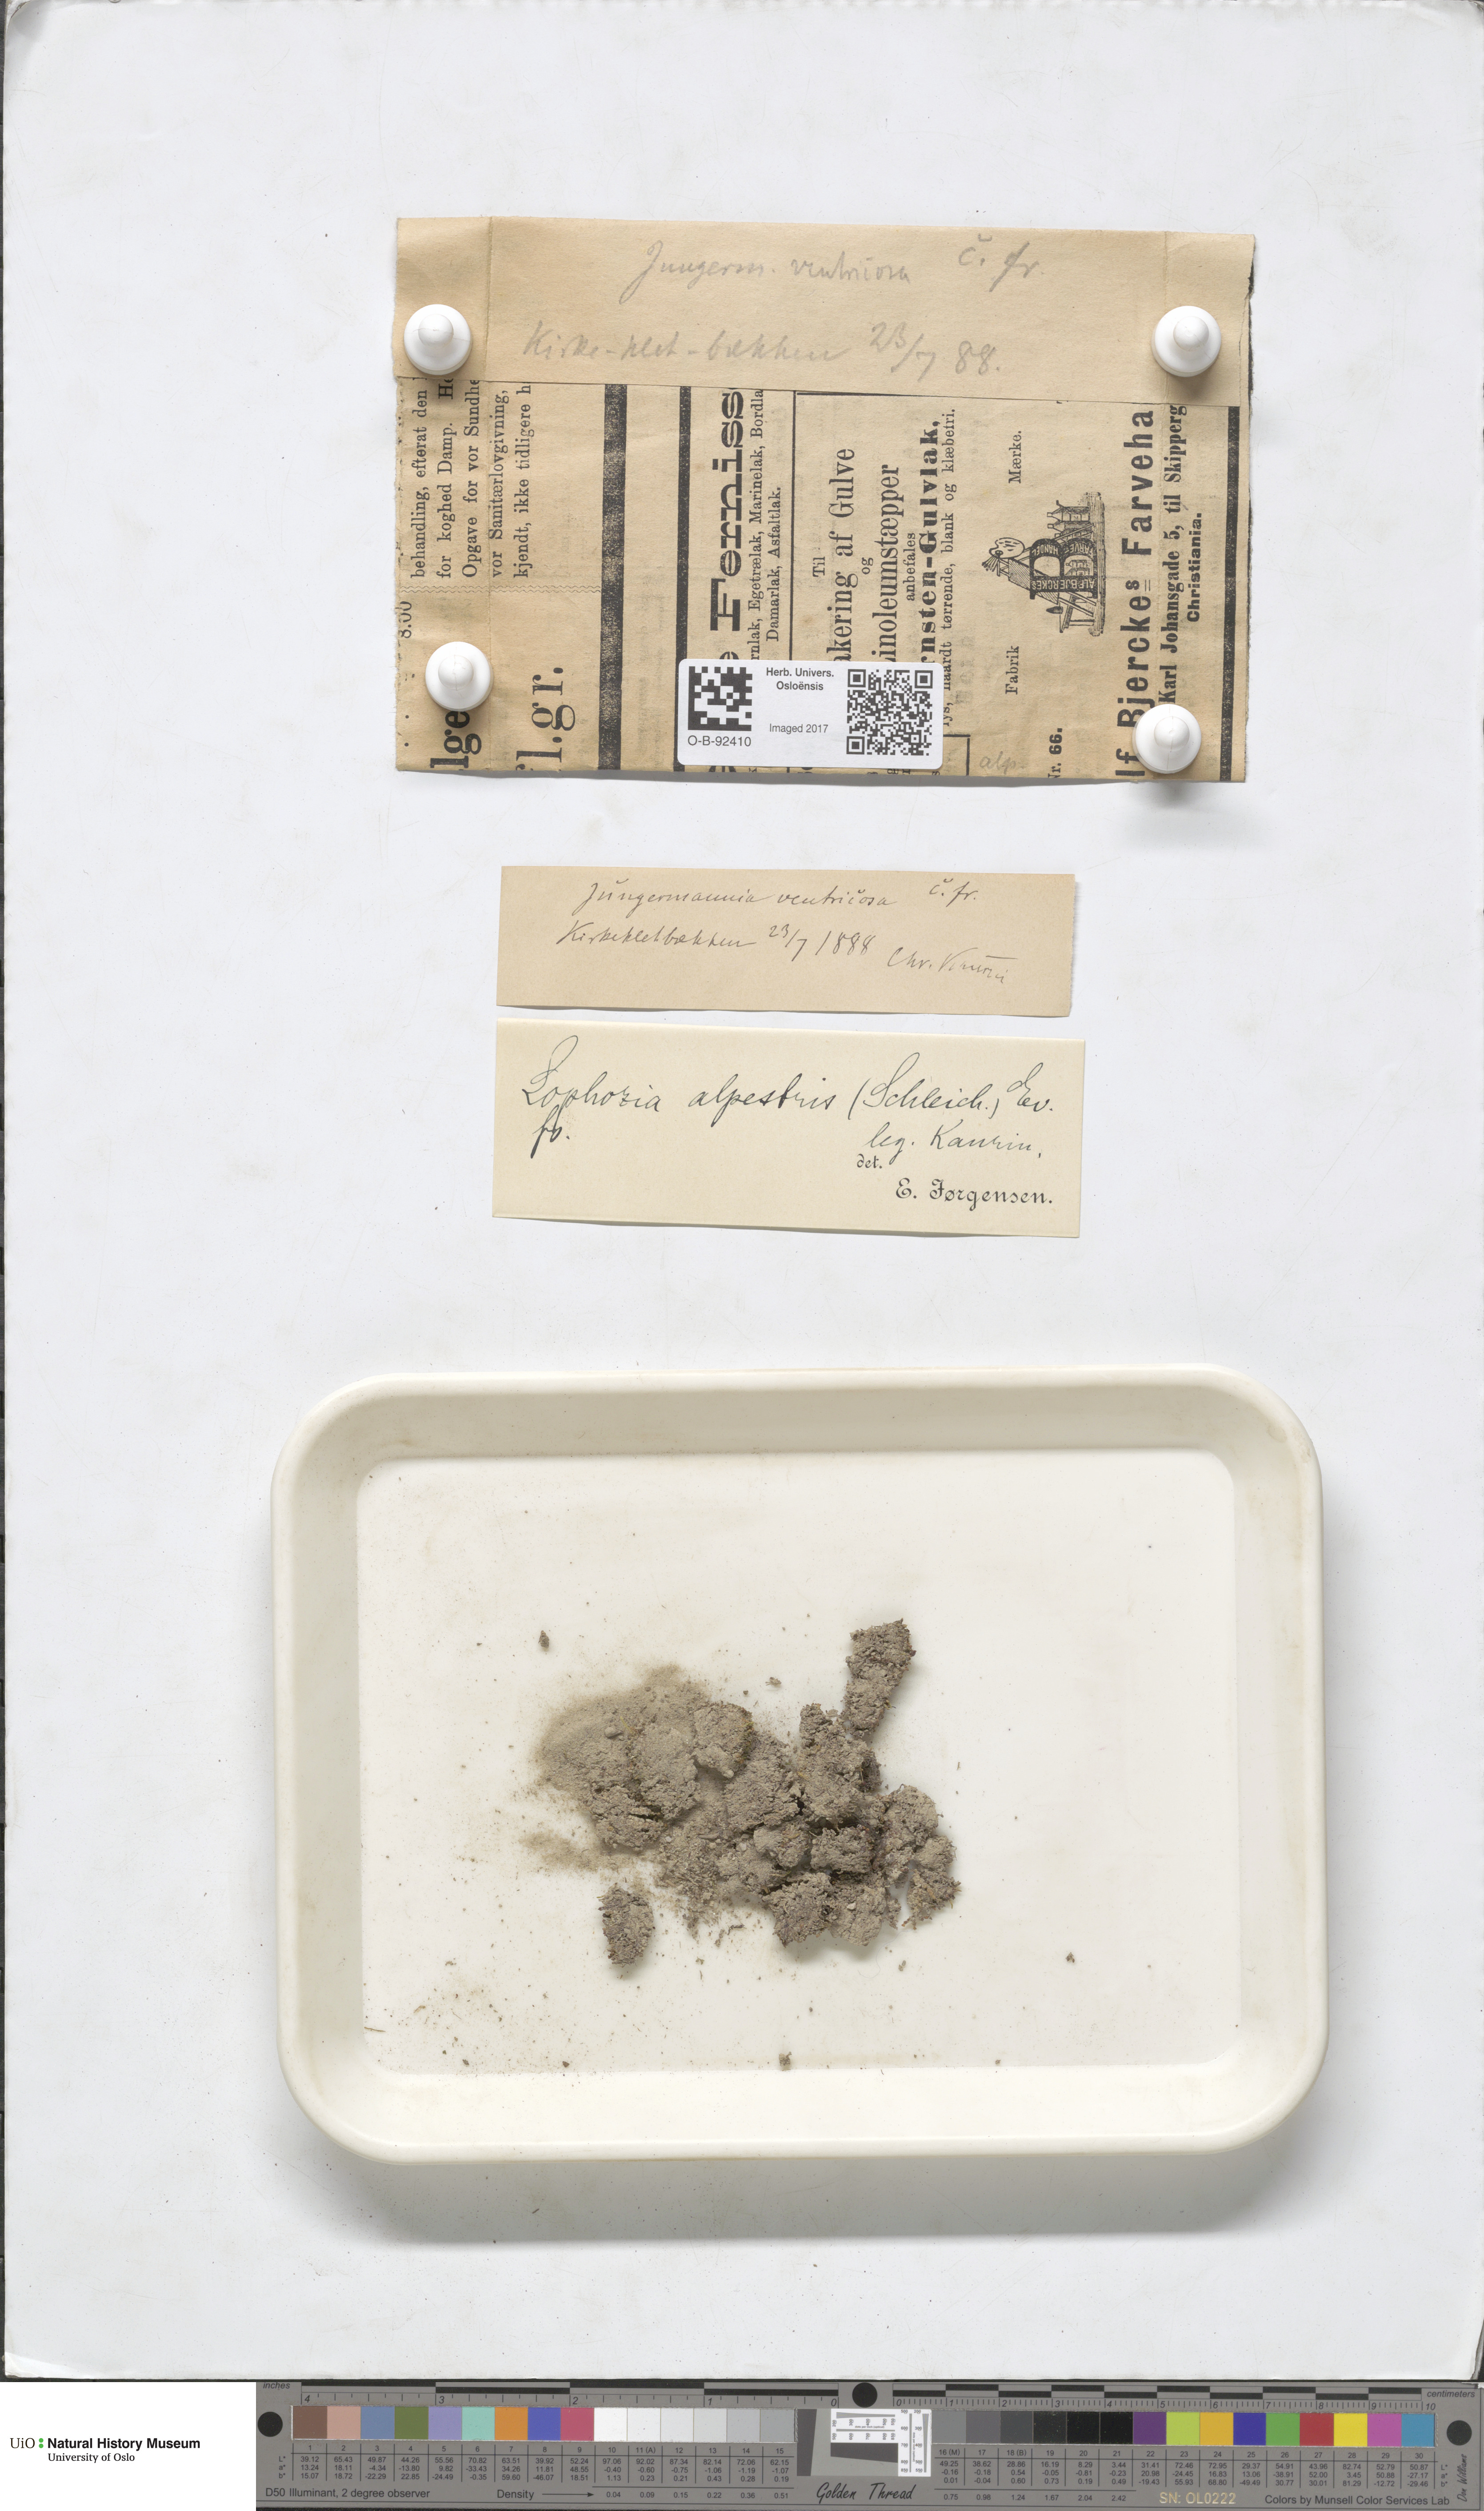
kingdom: Plantae
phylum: Marchantiophyta
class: Jungermanniopsida
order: Jungermanniales
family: Anastrophyllaceae
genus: Barbilophozia
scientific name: Barbilophozia sudetica
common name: Hill notchwort
